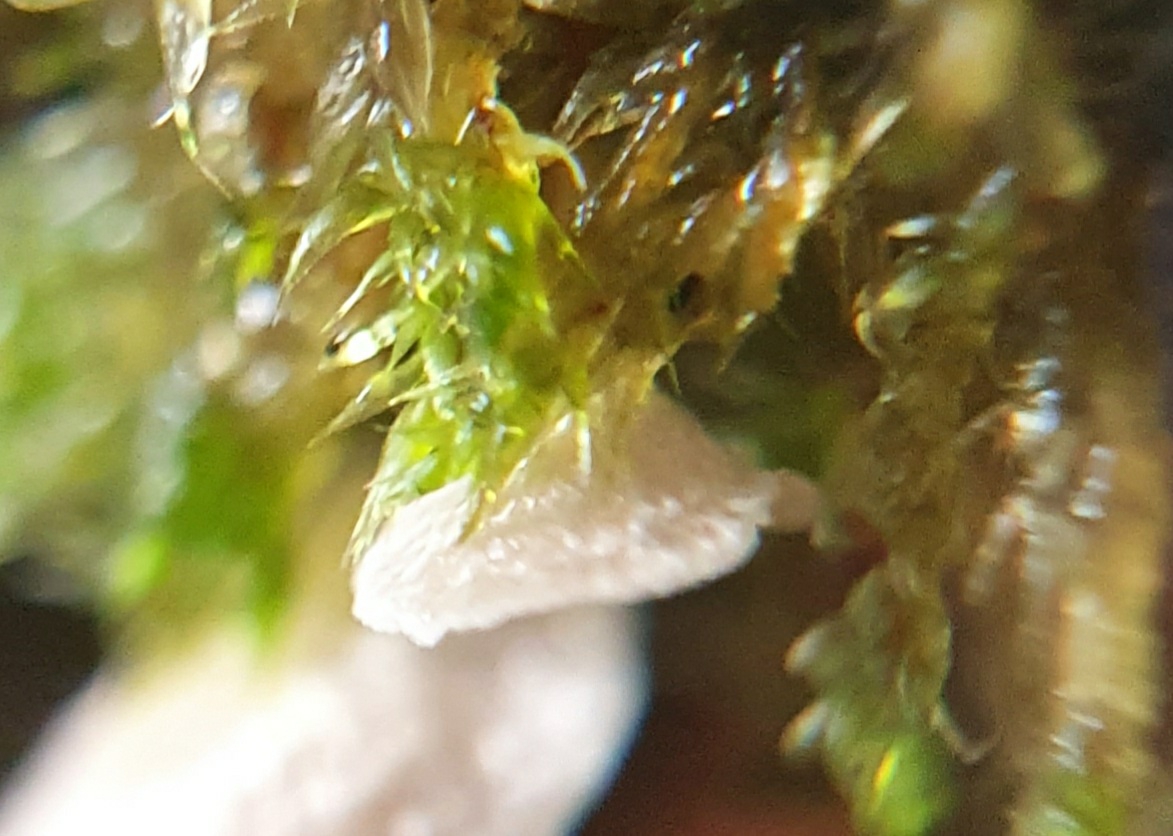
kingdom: Fungi
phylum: Basidiomycota
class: Agaricomycetes
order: Agaricales
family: Hygrophoraceae
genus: Arrhenia
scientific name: Arrhenia retiruga
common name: lille fontænehat
